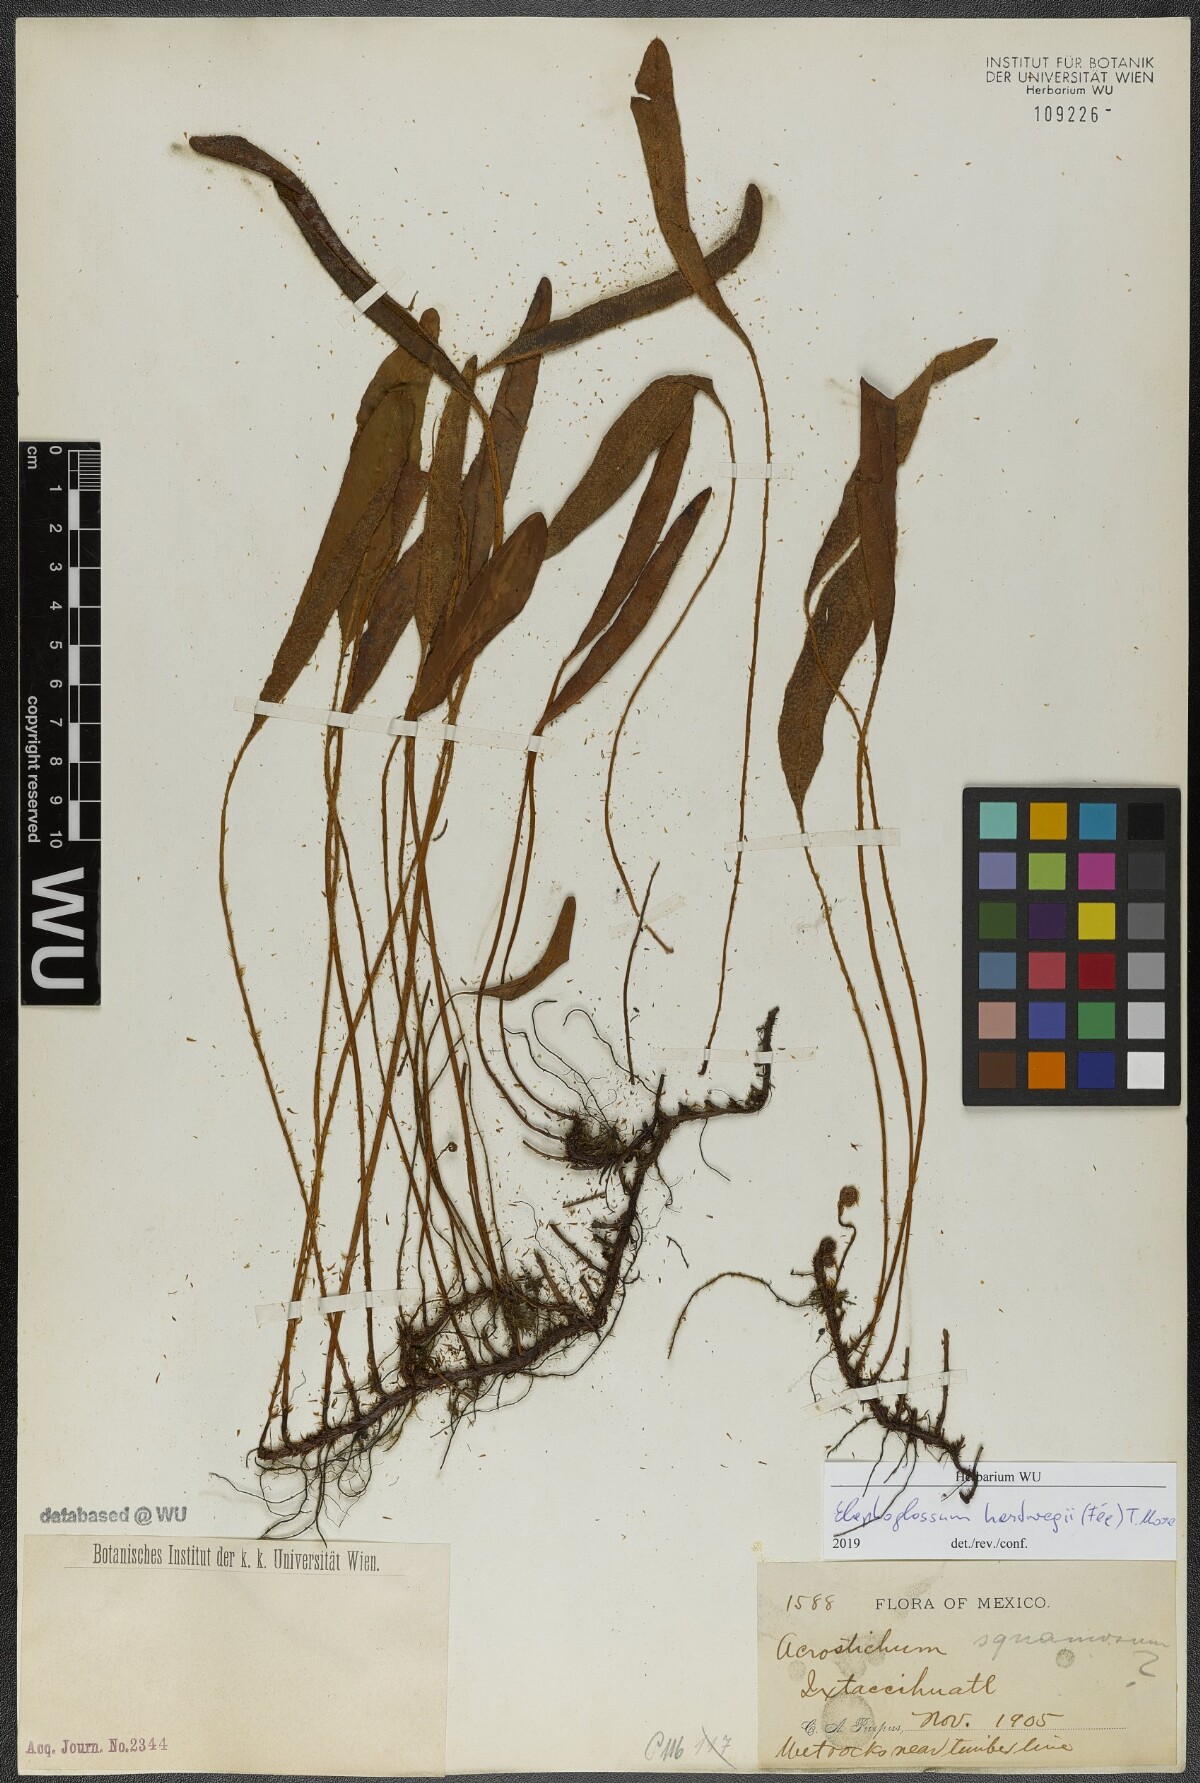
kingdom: Plantae
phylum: Tracheophyta
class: Polypodiopsida
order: Polypodiales
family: Dryopteridaceae
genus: Elaphoglossum
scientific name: Elaphoglossum hartwegii
